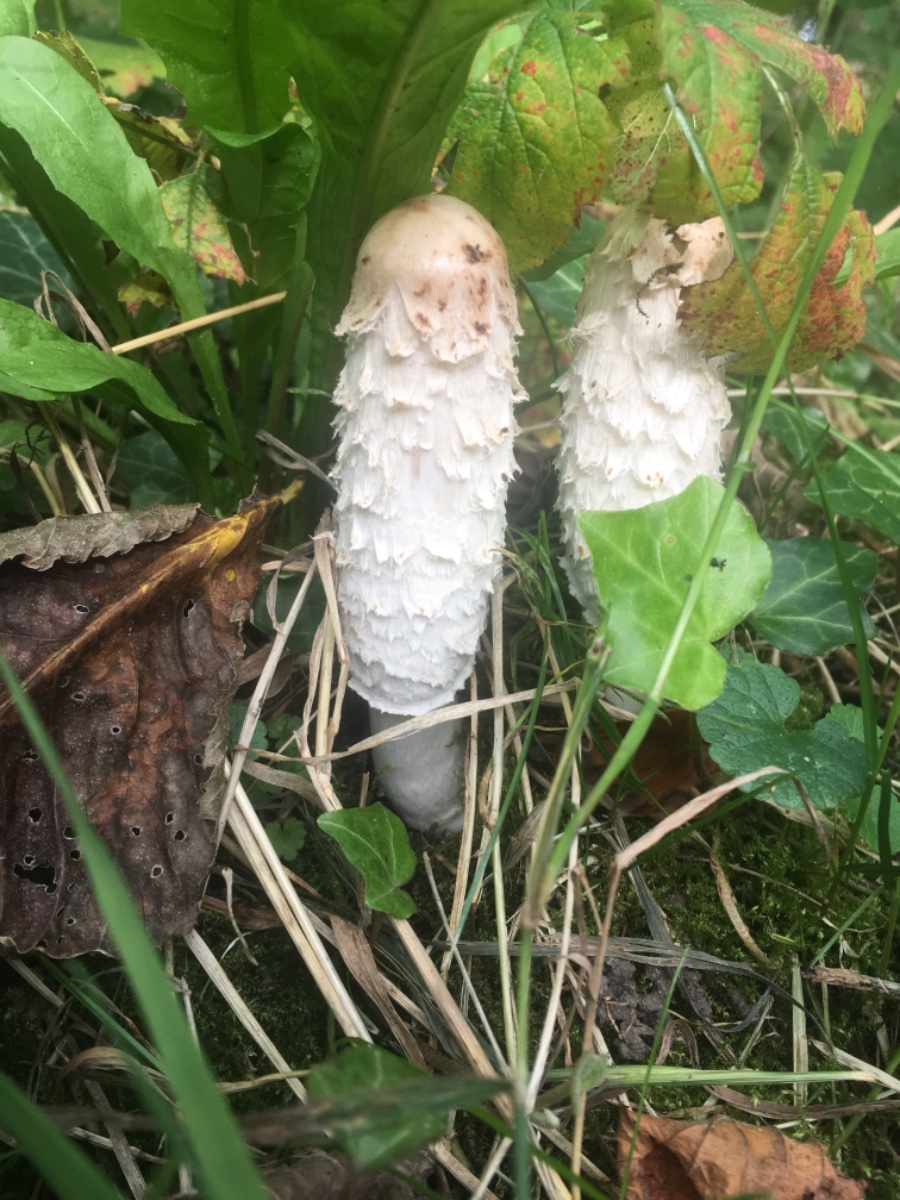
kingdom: Fungi
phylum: Basidiomycota
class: Agaricomycetes
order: Agaricales
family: Agaricaceae
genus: Coprinus
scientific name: Coprinus comatus
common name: stor parykhat
